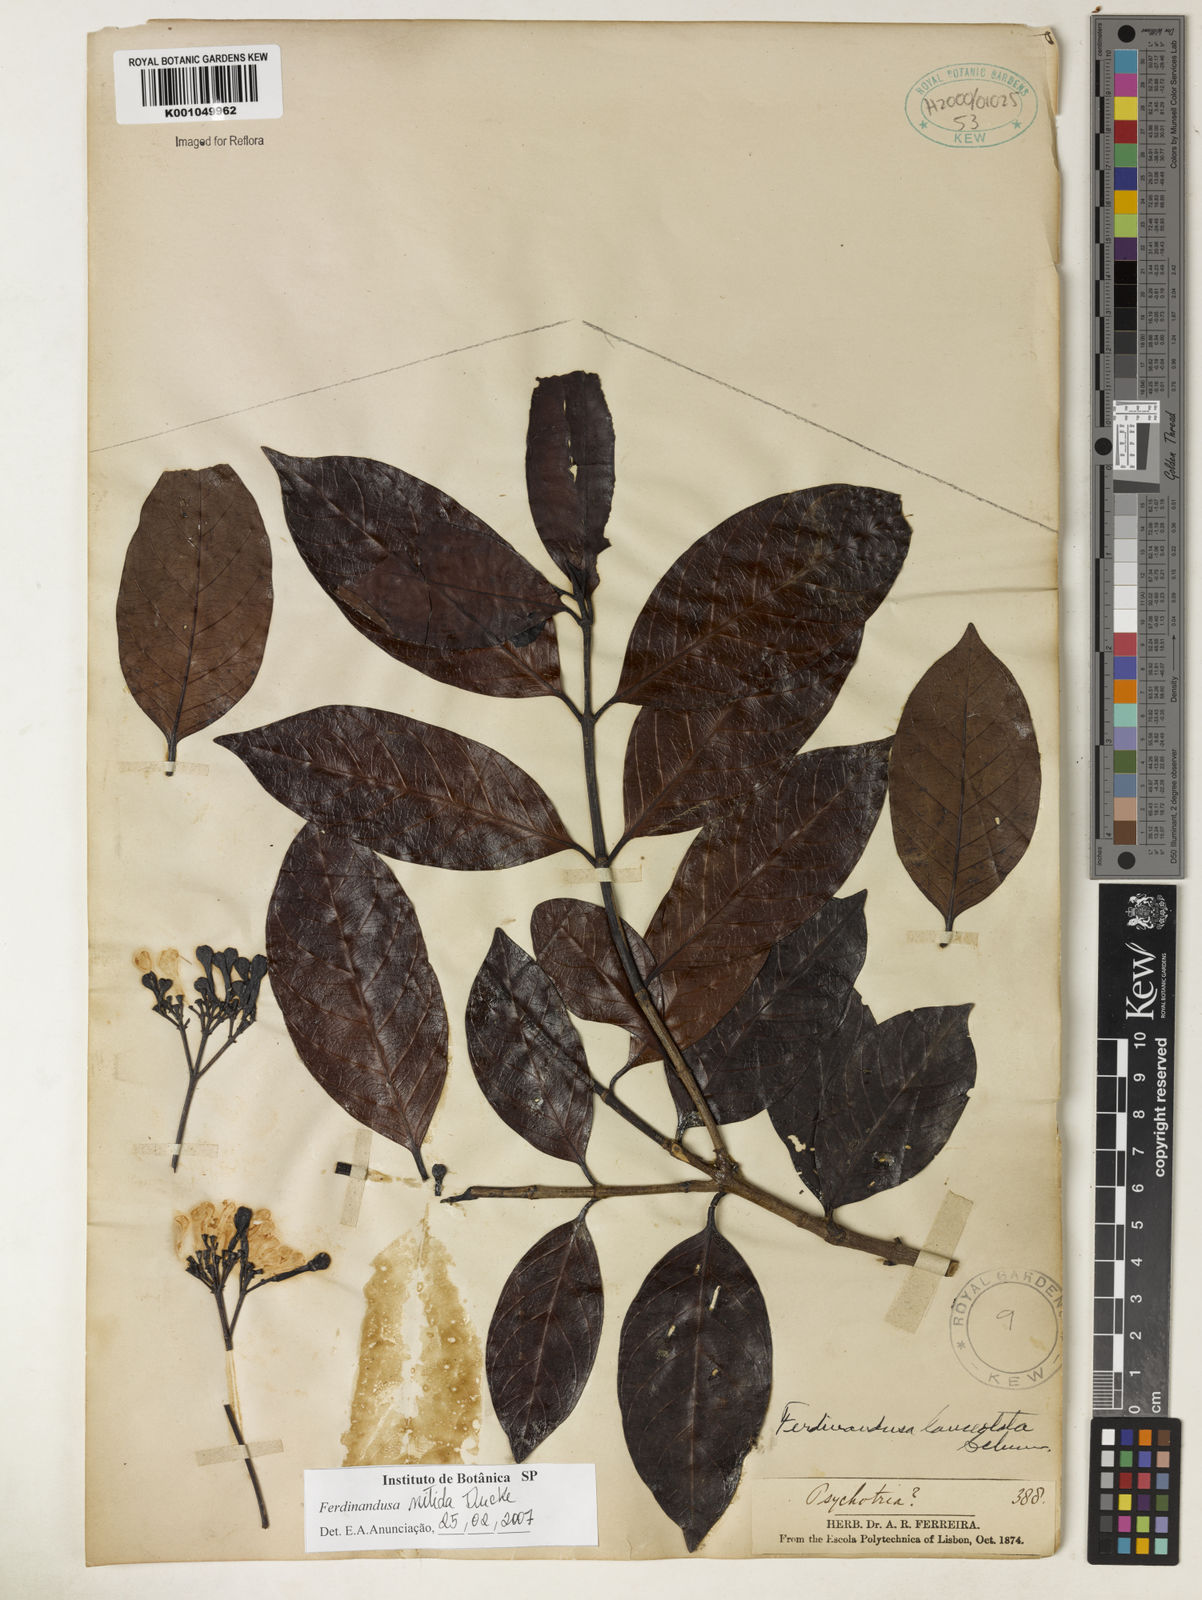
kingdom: Plantae
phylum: Tracheophyta
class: Magnoliopsida
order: Gentianales
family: Rubiaceae
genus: Ferdinandusa
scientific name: Ferdinandusa nitida
